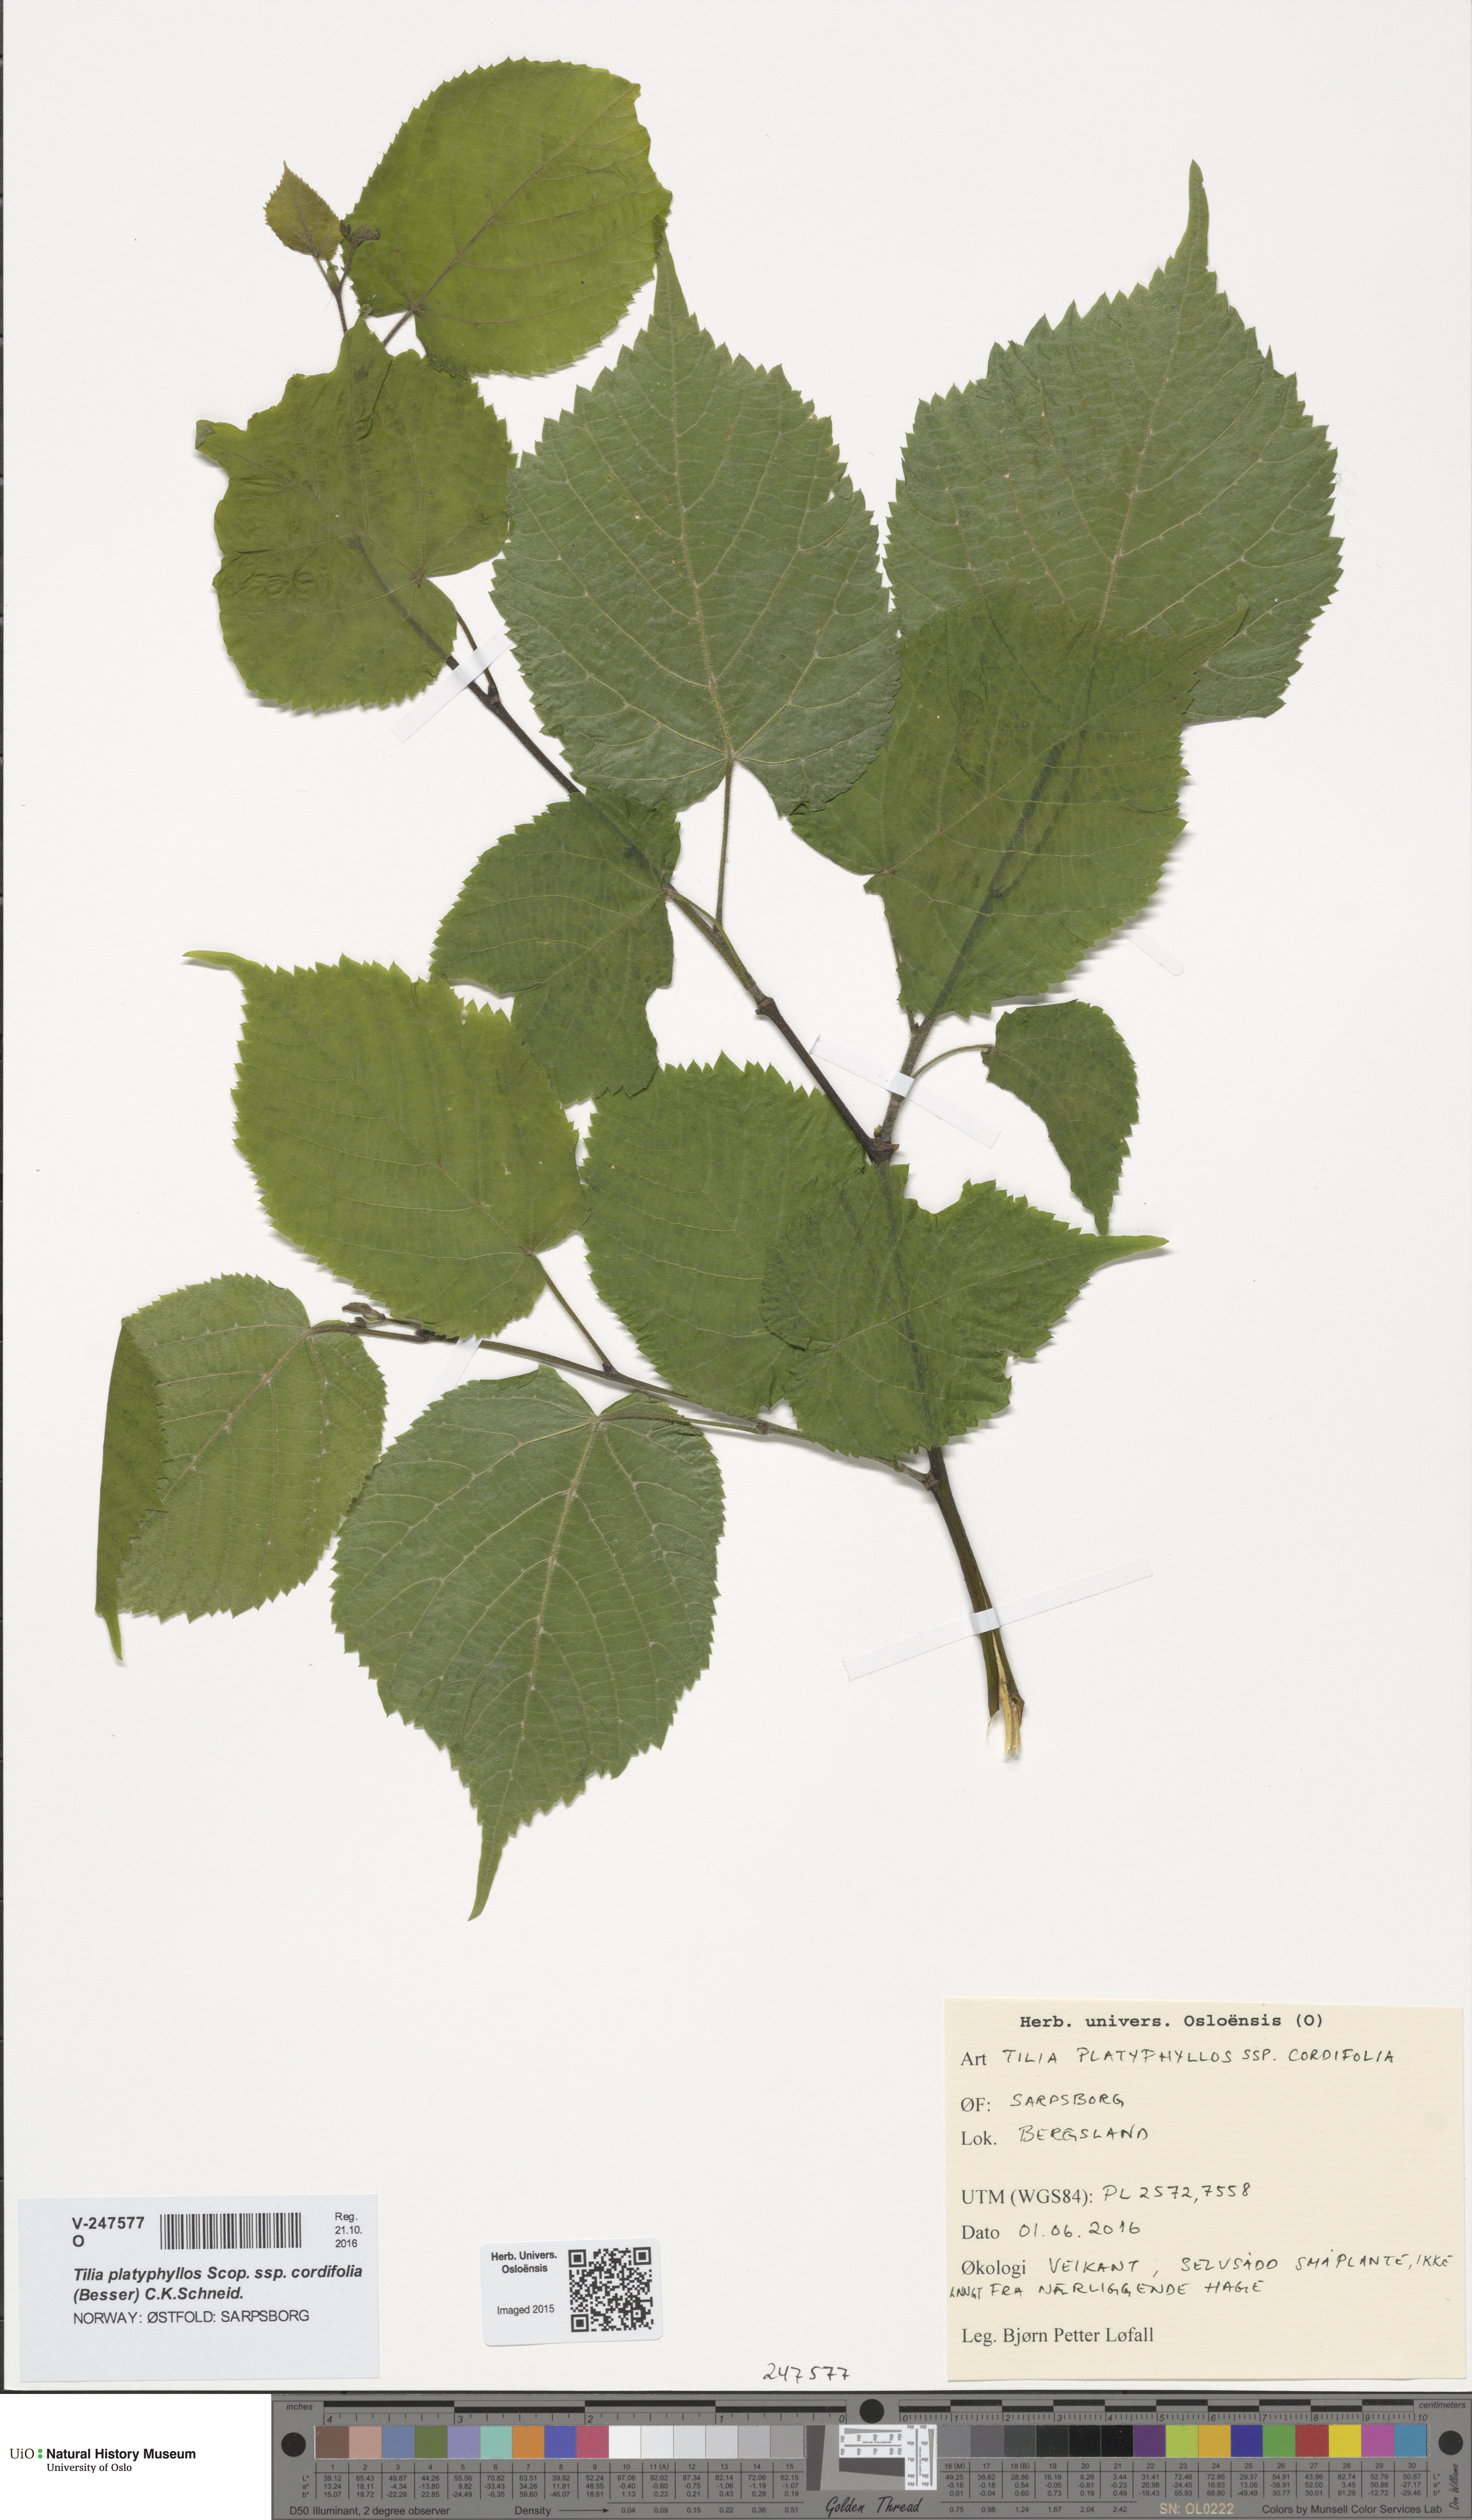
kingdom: Plantae
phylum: Tracheophyta
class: Magnoliopsida
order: Malvales
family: Malvaceae
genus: Tilia
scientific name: Tilia platyphyllos
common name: Large-leaved lime
